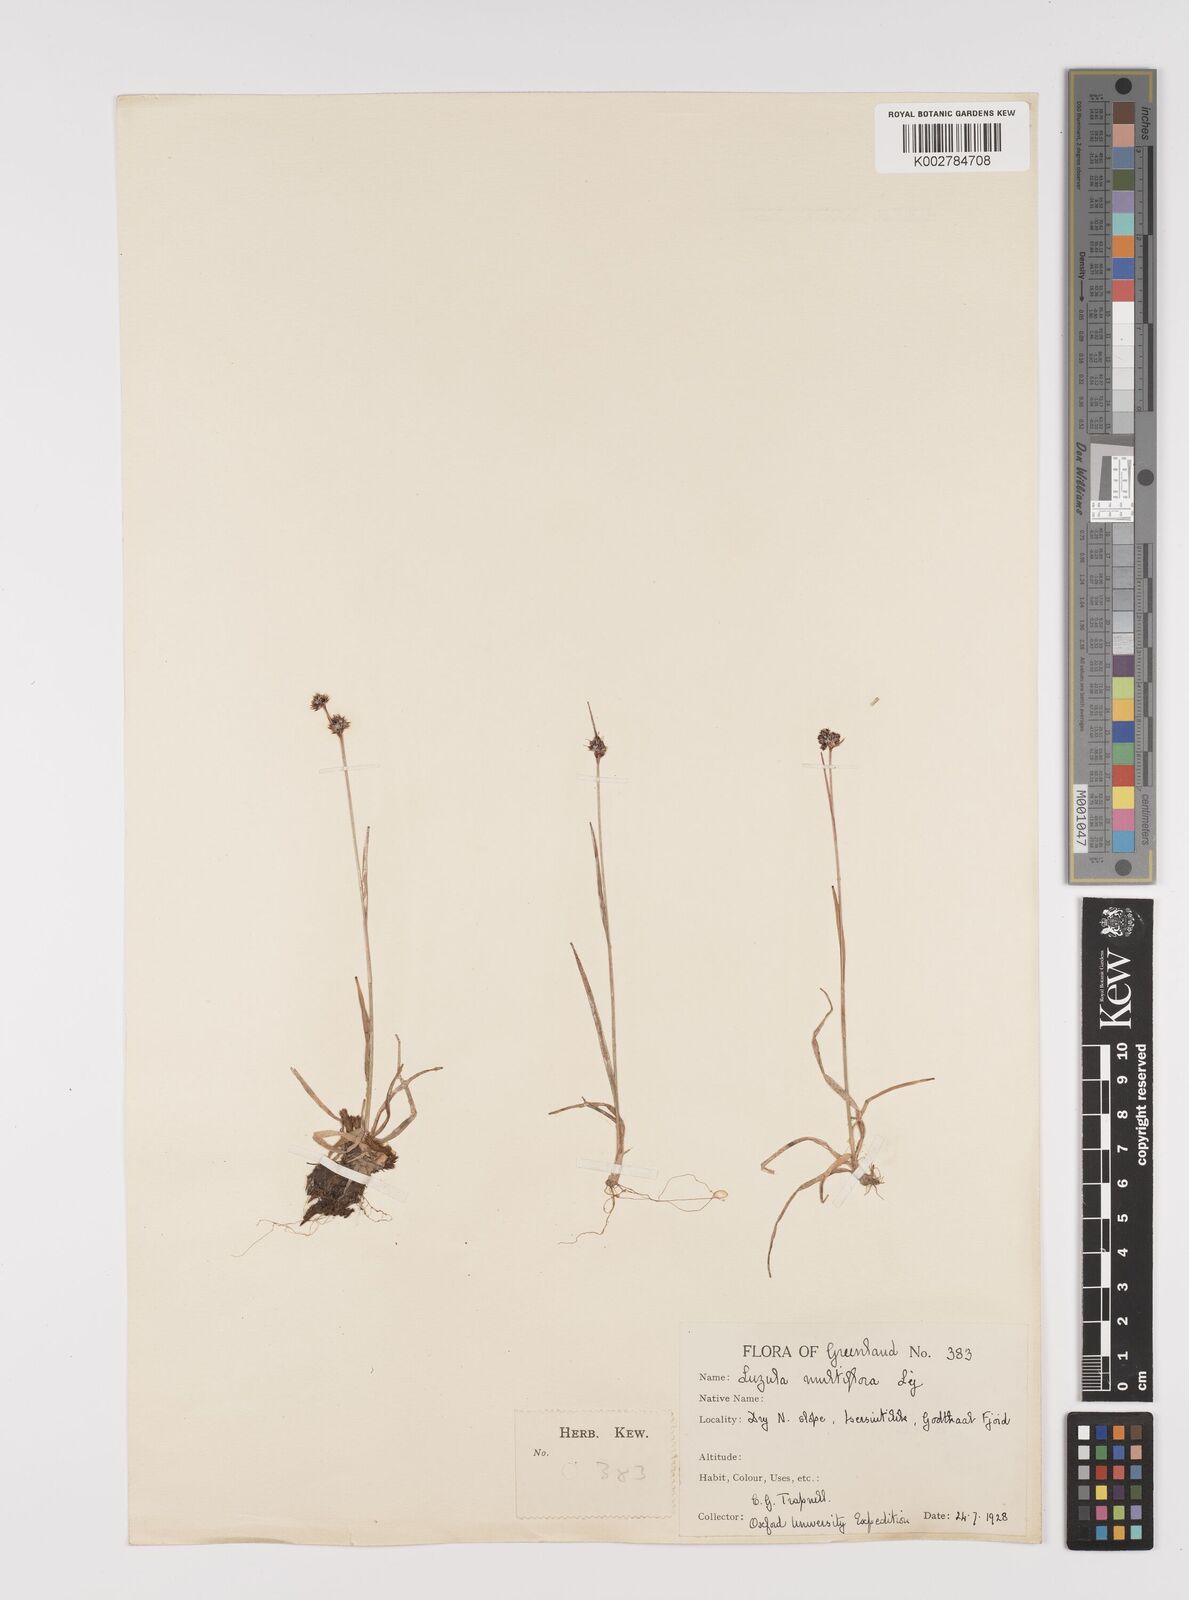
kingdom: Plantae
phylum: Tracheophyta
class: Liliopsida
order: Poales
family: Juncaceae
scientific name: Juncaceae
